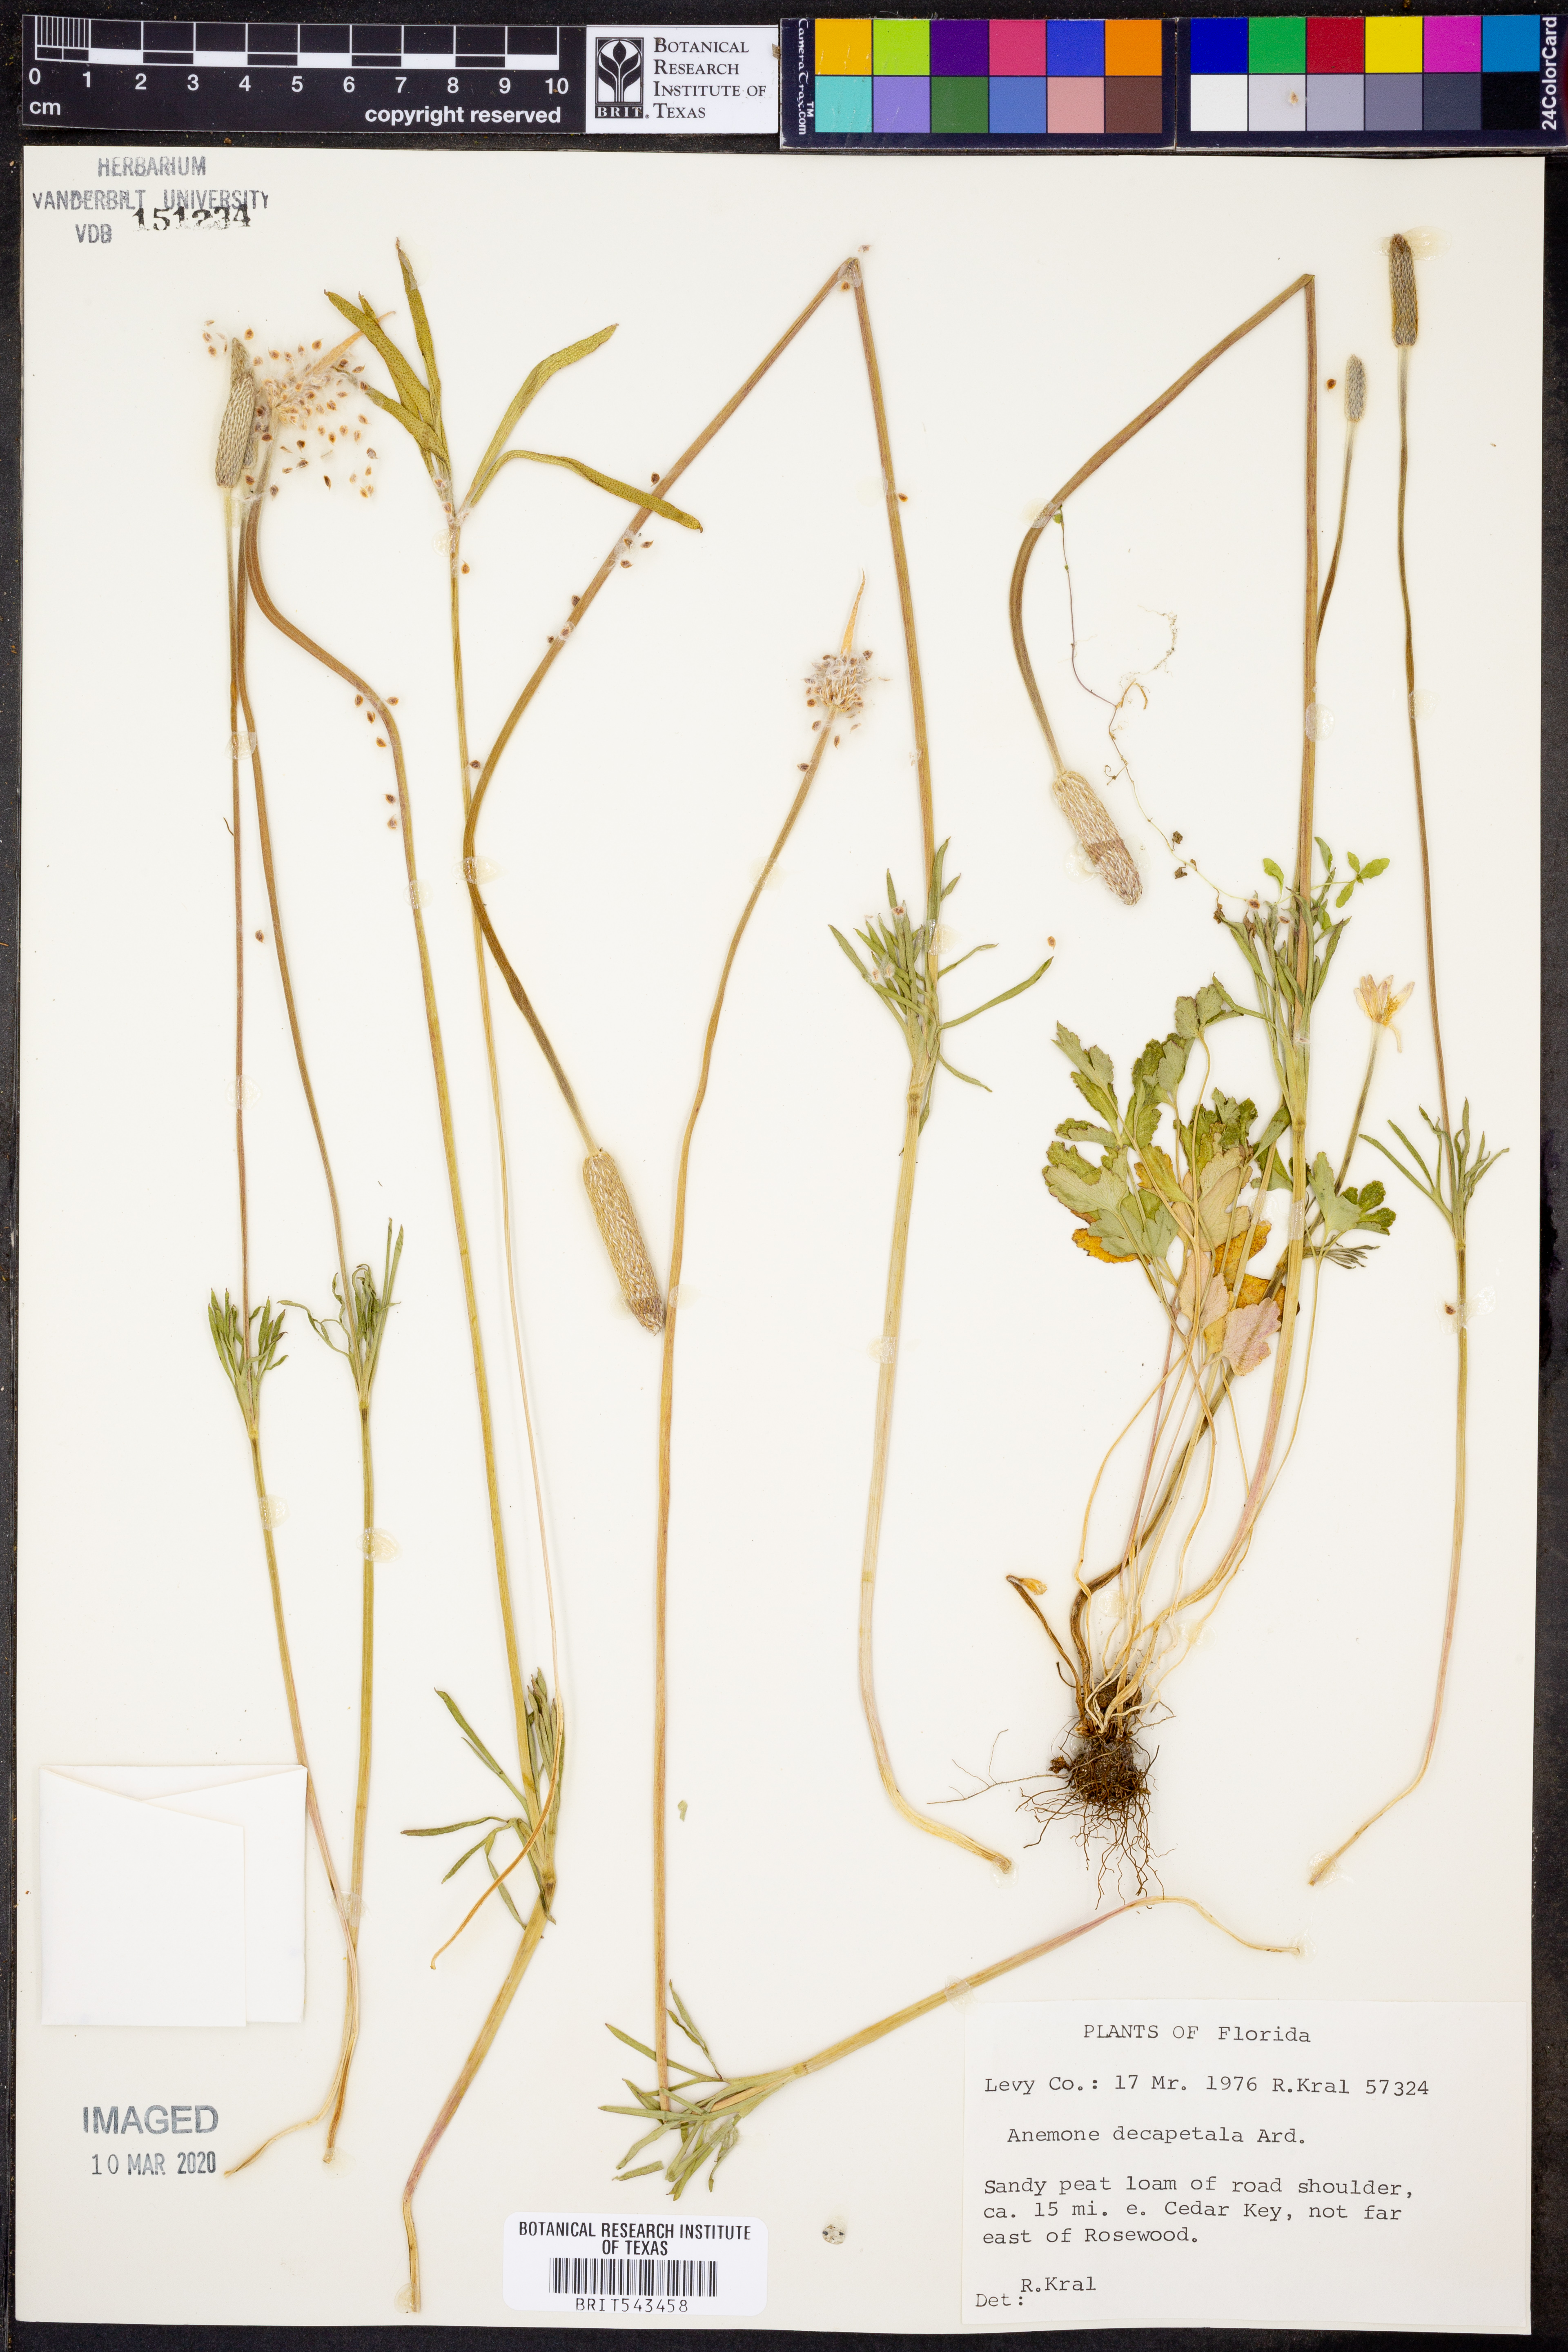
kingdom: Plantae
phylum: Tracheophyta
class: Magnoliopsida
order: Ranunculales
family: Ranunculaceae
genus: Anemone
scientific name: Anemone decapetala
